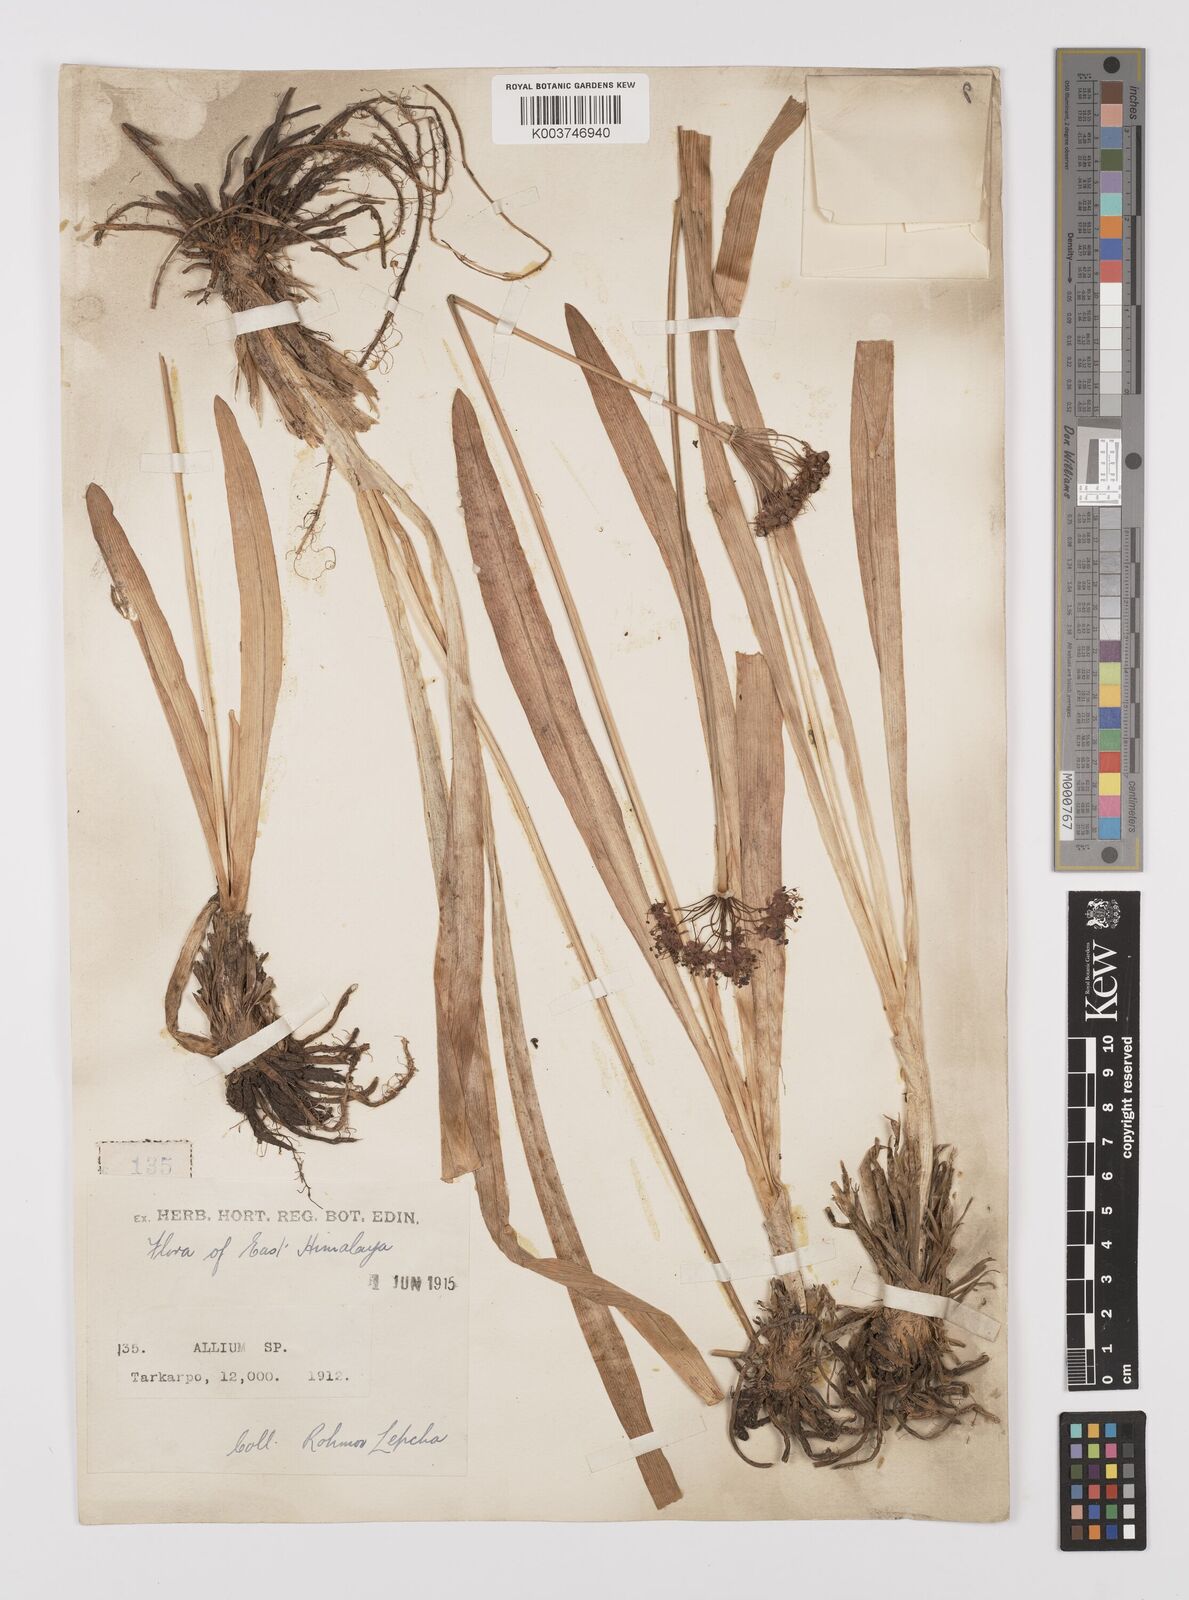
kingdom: Plantae
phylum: Tracheophyta
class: Liliopsida
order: Asparagales
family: Amaryllidaceae
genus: Allium
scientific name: Allium
